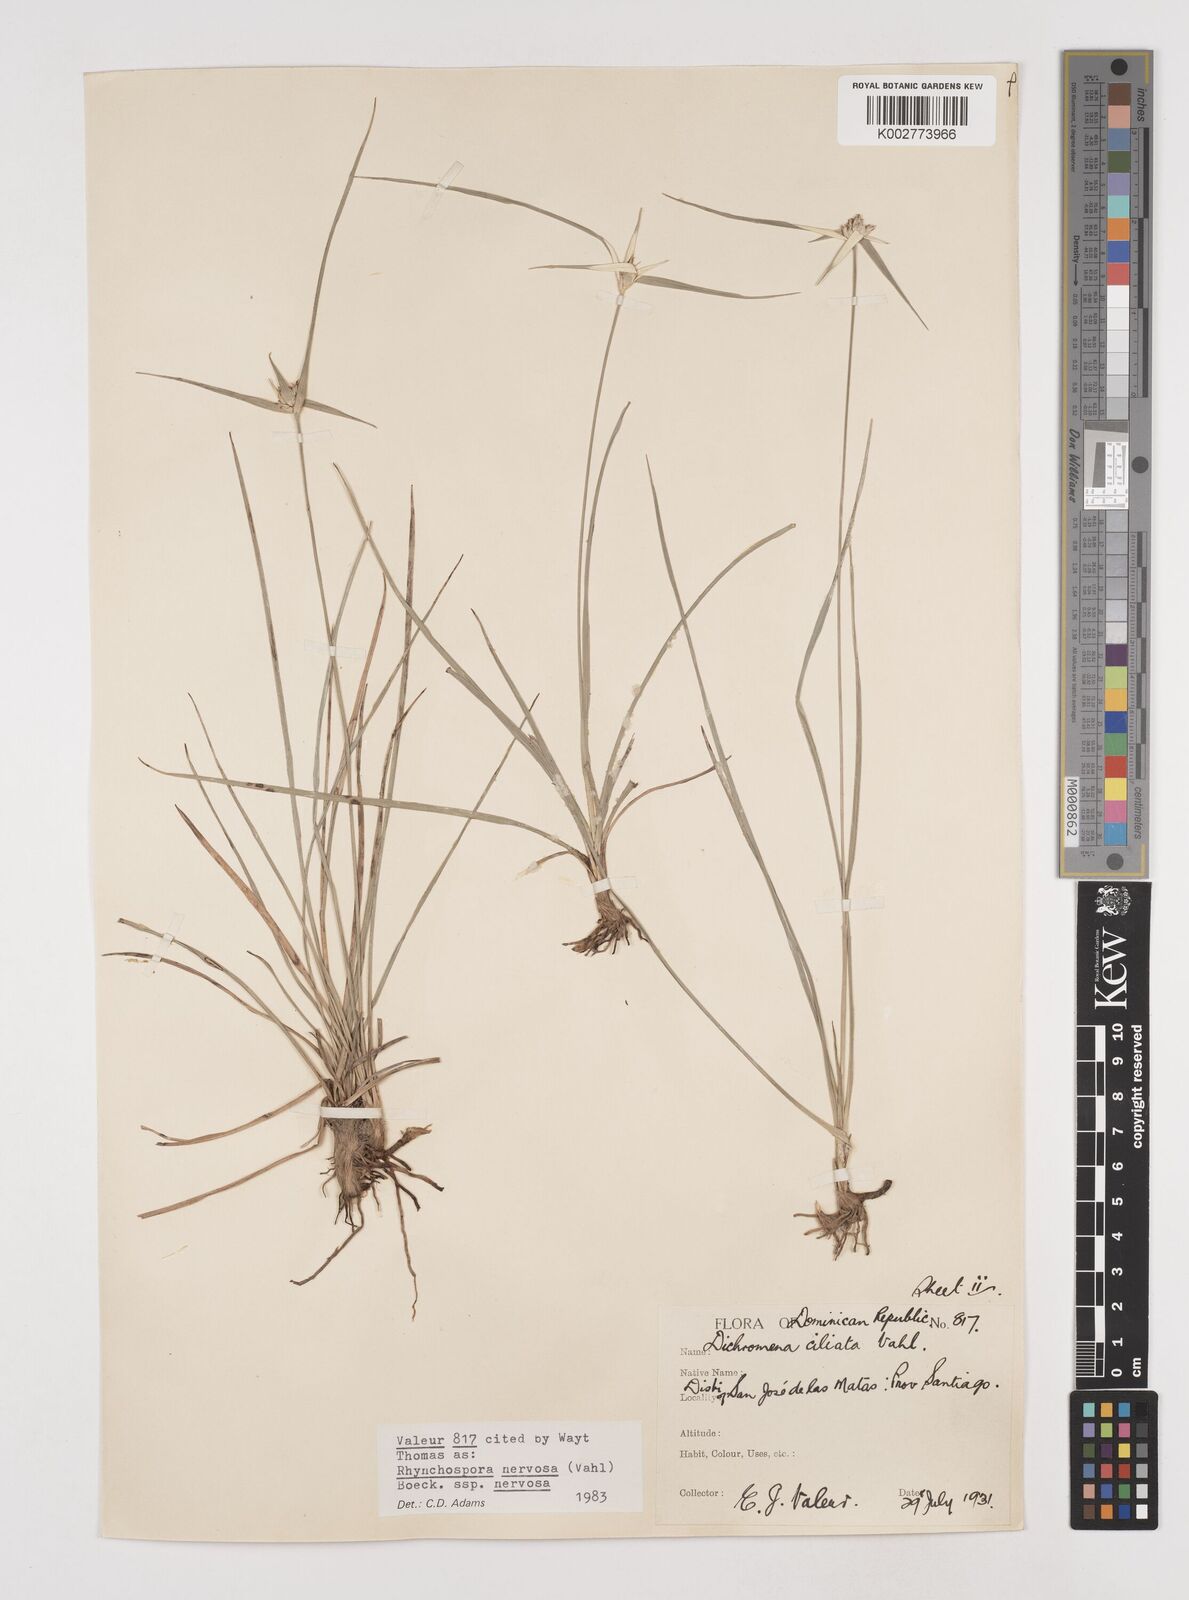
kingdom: Plantae
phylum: Tracheophyta
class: Liliopsida
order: Poales
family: Cyperaceae
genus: Rhynchospora
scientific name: Rhynchospora nervosa
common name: Star sedge
